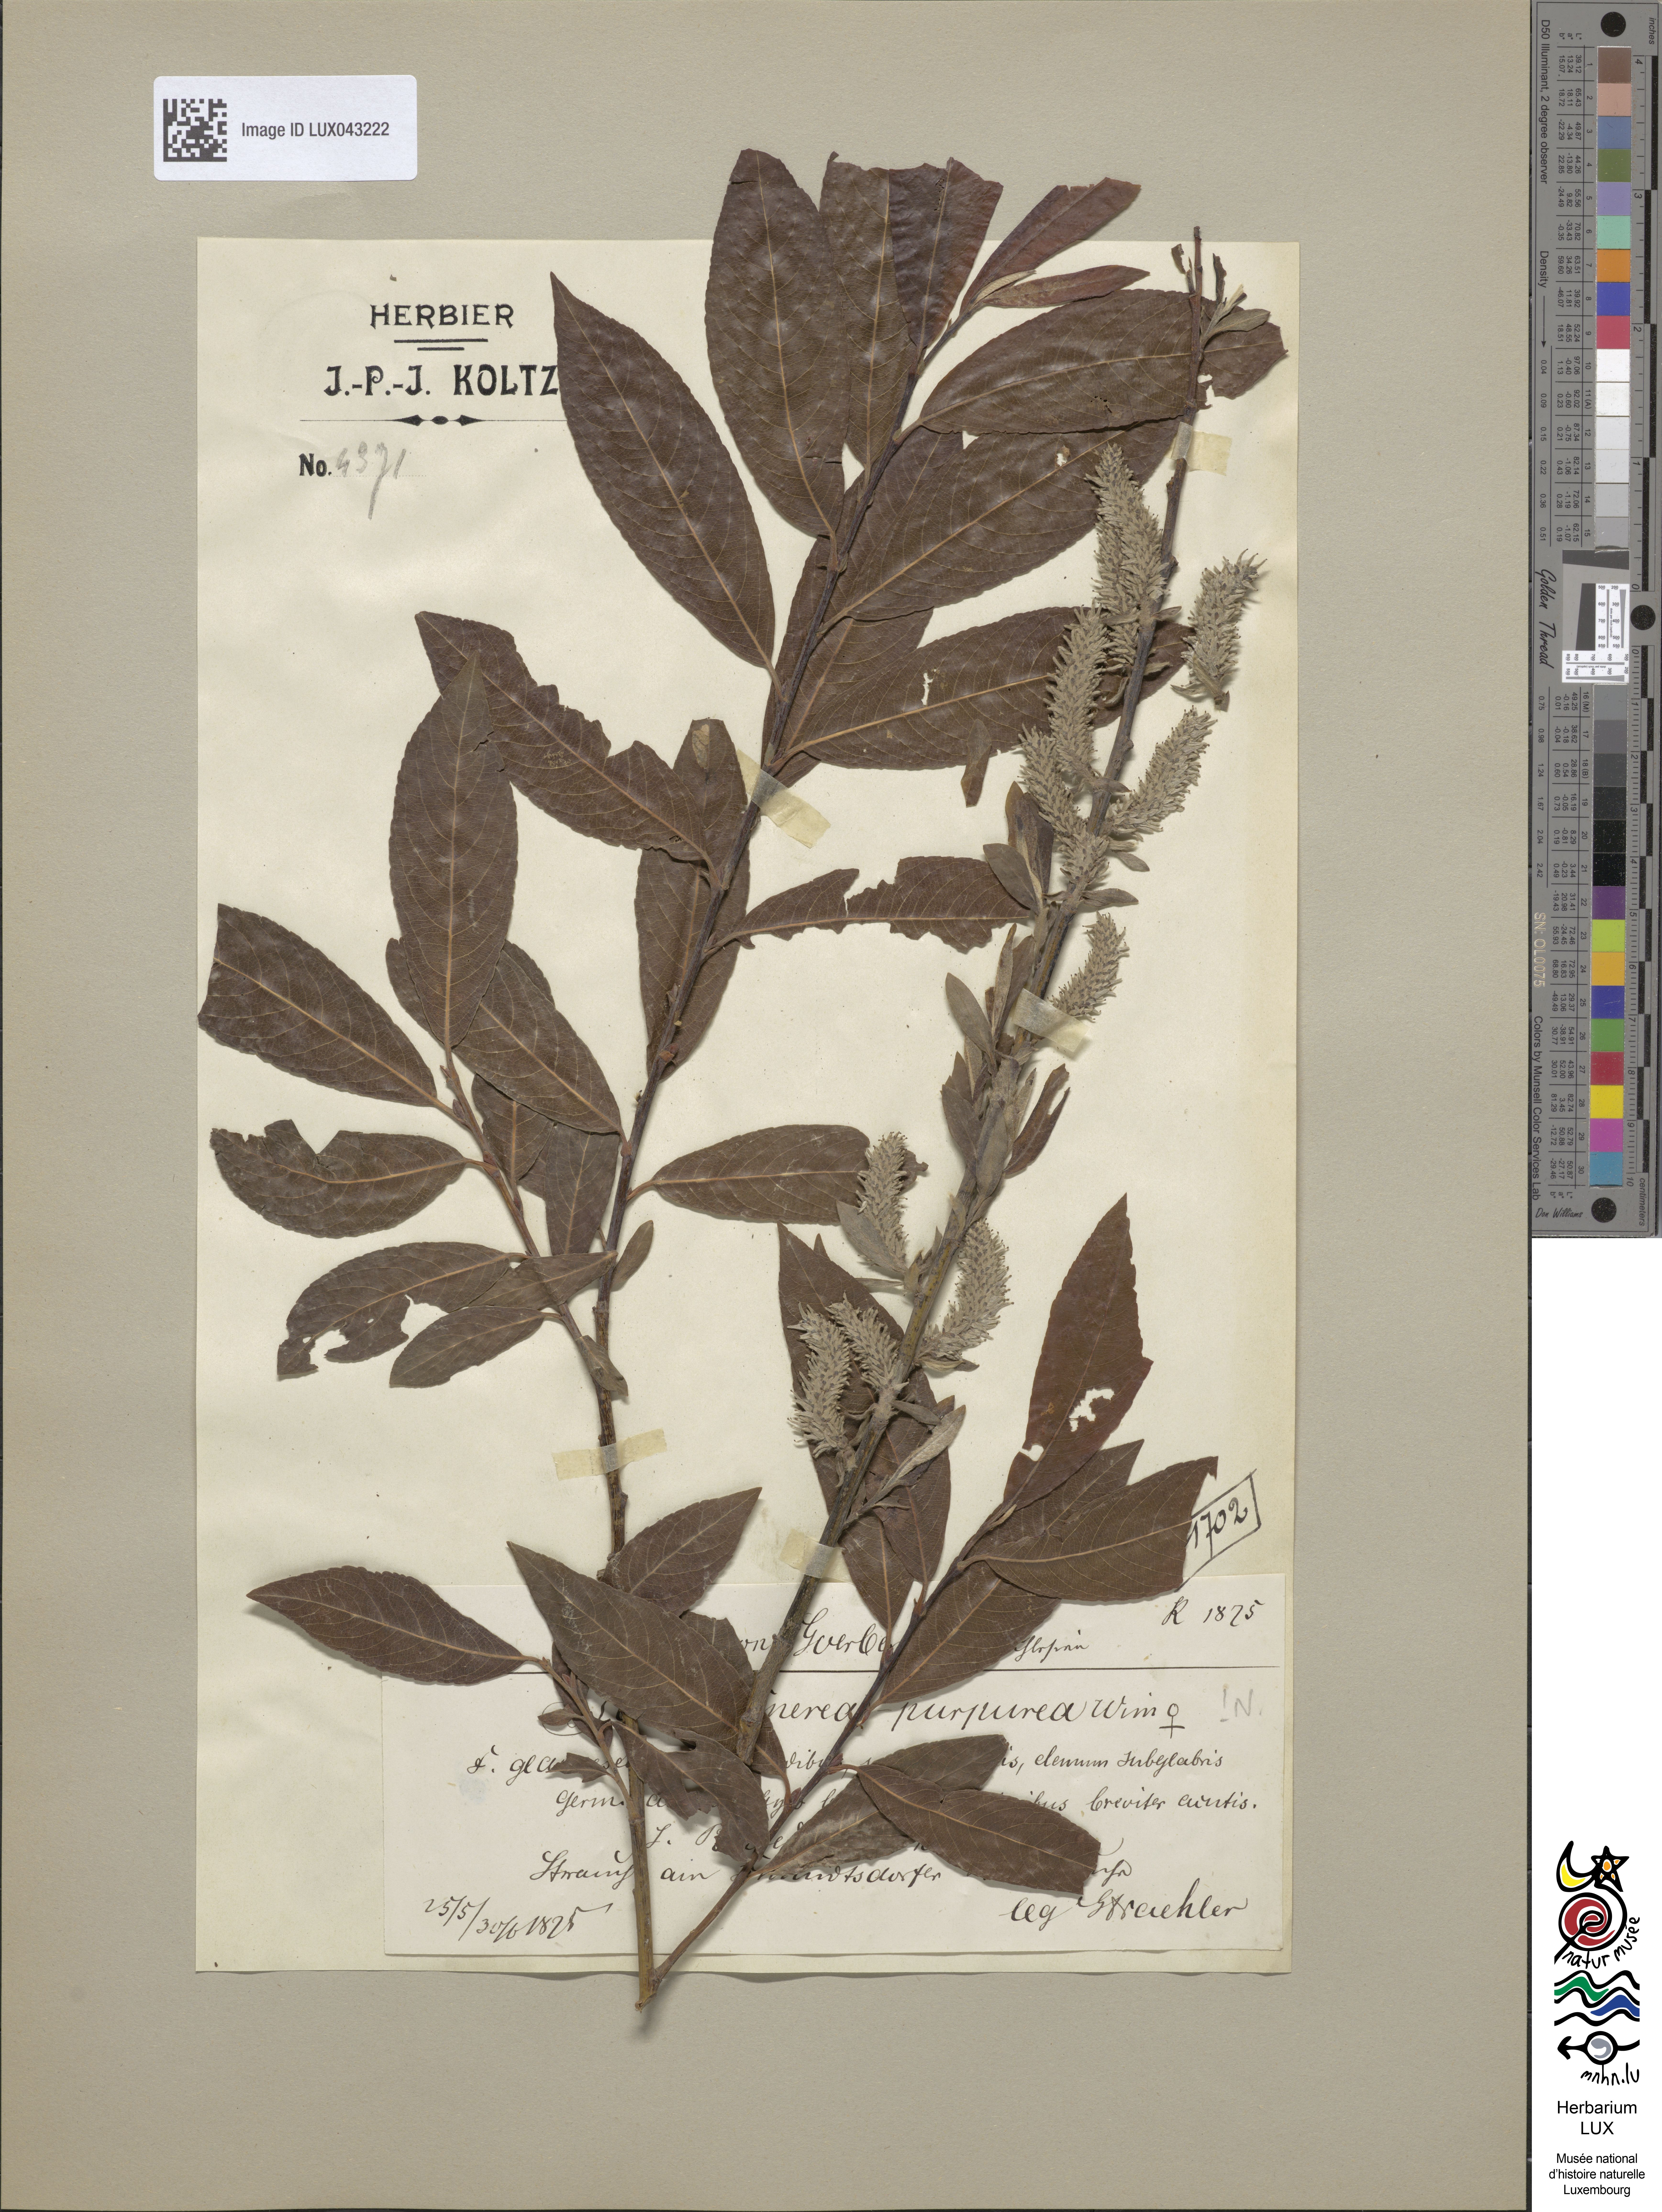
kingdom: Plantae
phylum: Tracheophyta
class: Magnoliopsida
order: Malpighiales
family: Salicaceae
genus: Salix
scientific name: Salix
